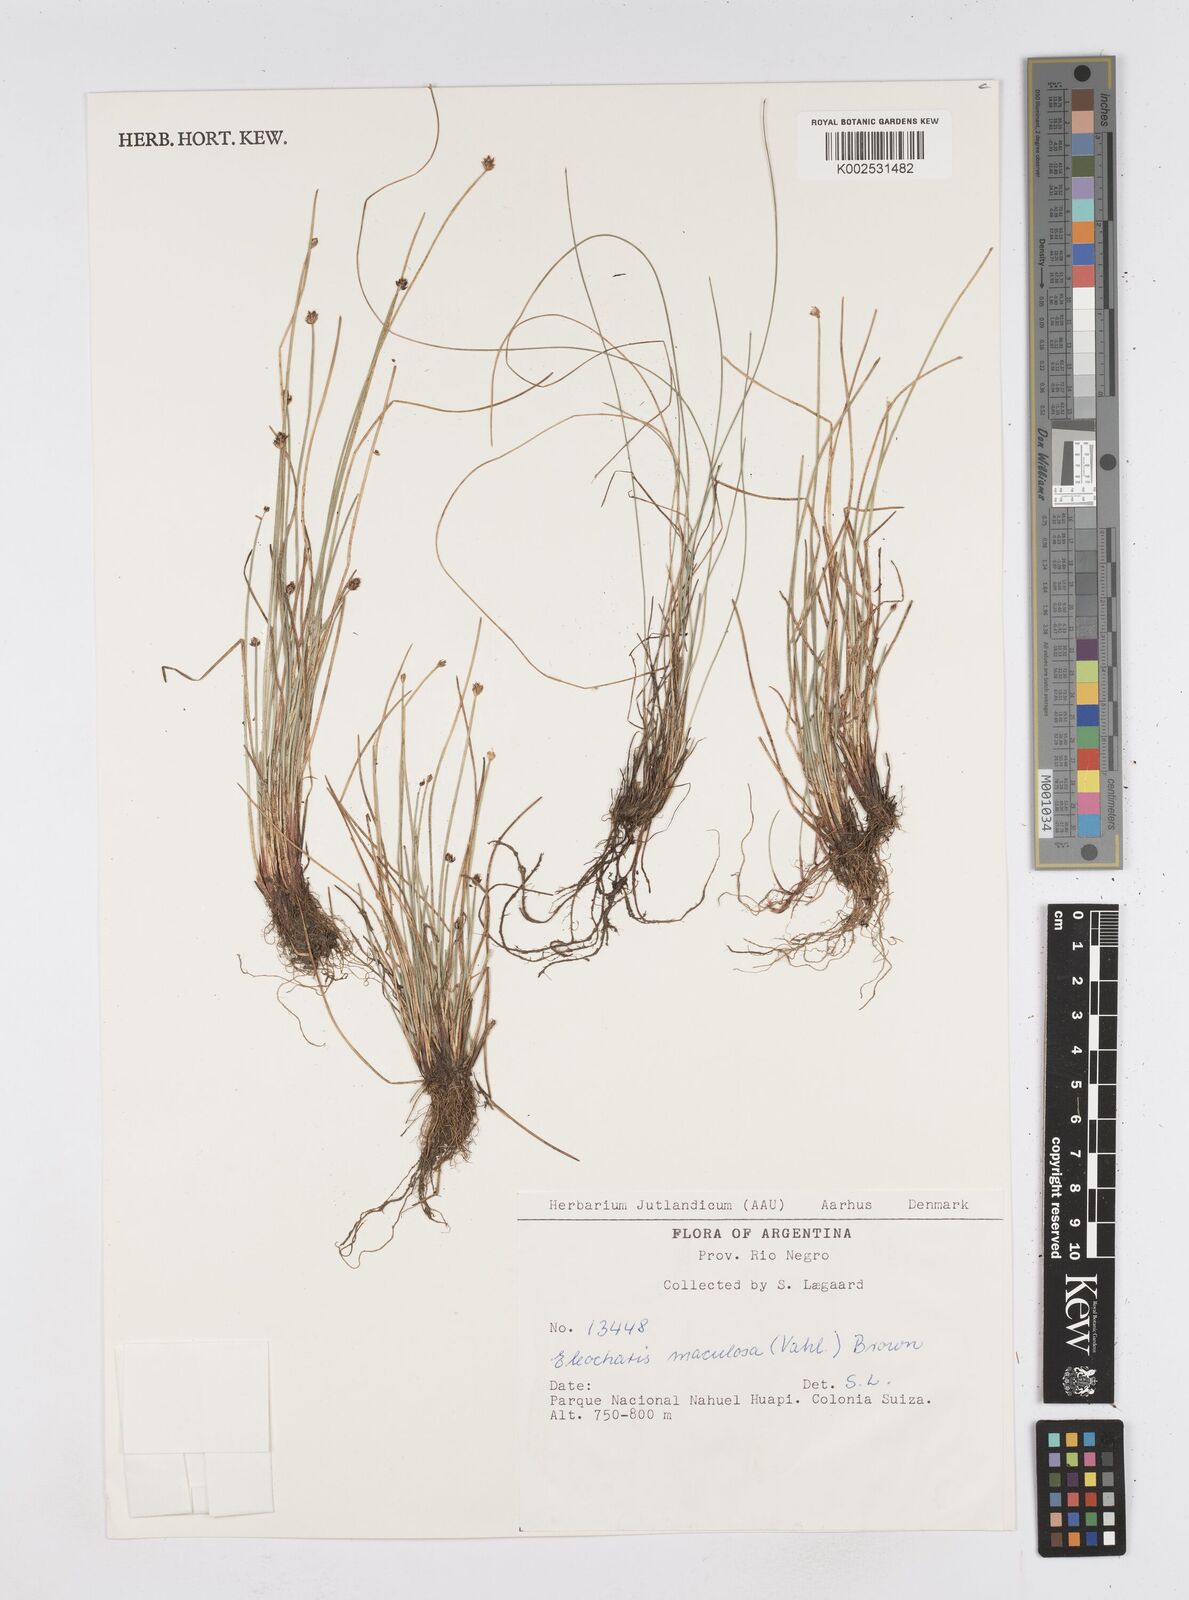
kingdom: Plantae
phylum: Tracheophyta
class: Liliopsida
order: Poales
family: Cyperaceae
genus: Eleocharis
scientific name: Eleocharis maculosa
